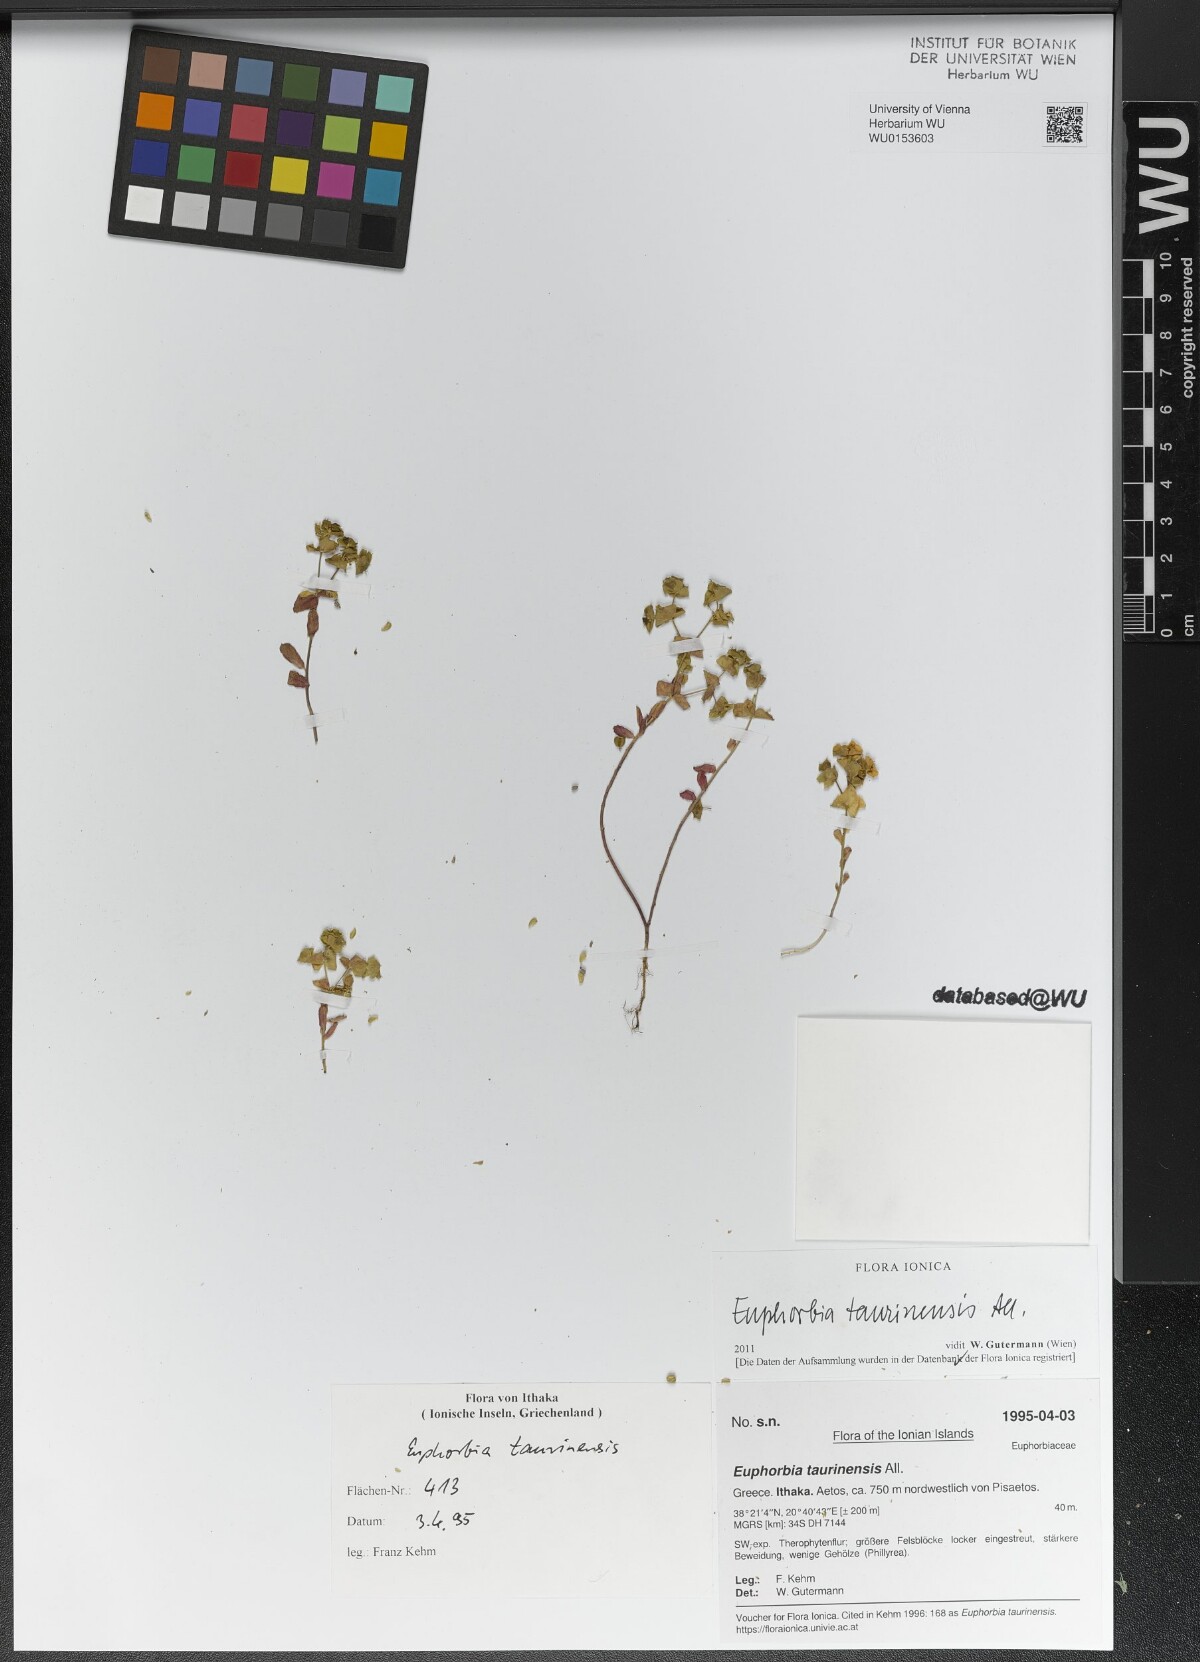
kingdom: Plantae
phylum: Tracheophyta
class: Magnoliopsida
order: Malpighiales
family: Euphorbiaceae
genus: Euphorbia
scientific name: Euphorbia taurinensis
